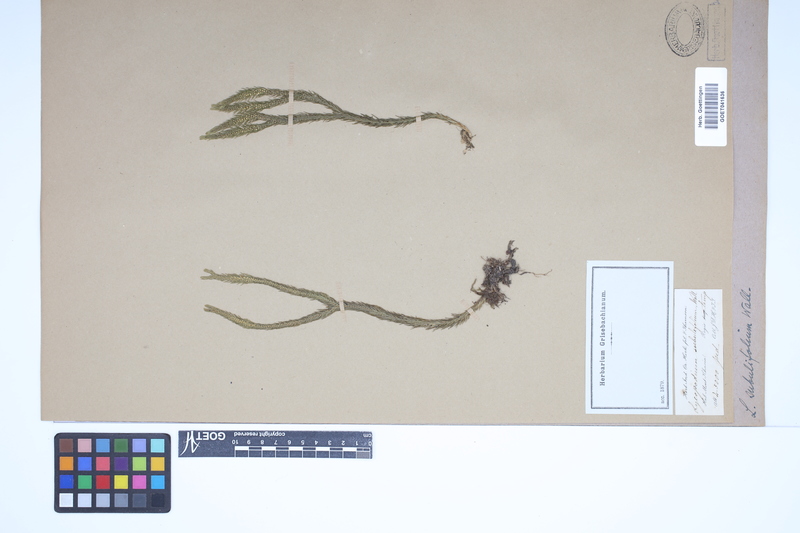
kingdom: Plantae
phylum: Tracheophyta
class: Lycopodiopsida
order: Lycopodiales
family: Lycopodiaceae
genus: Phlegmariurus
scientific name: Phlegmariurus subulatus
